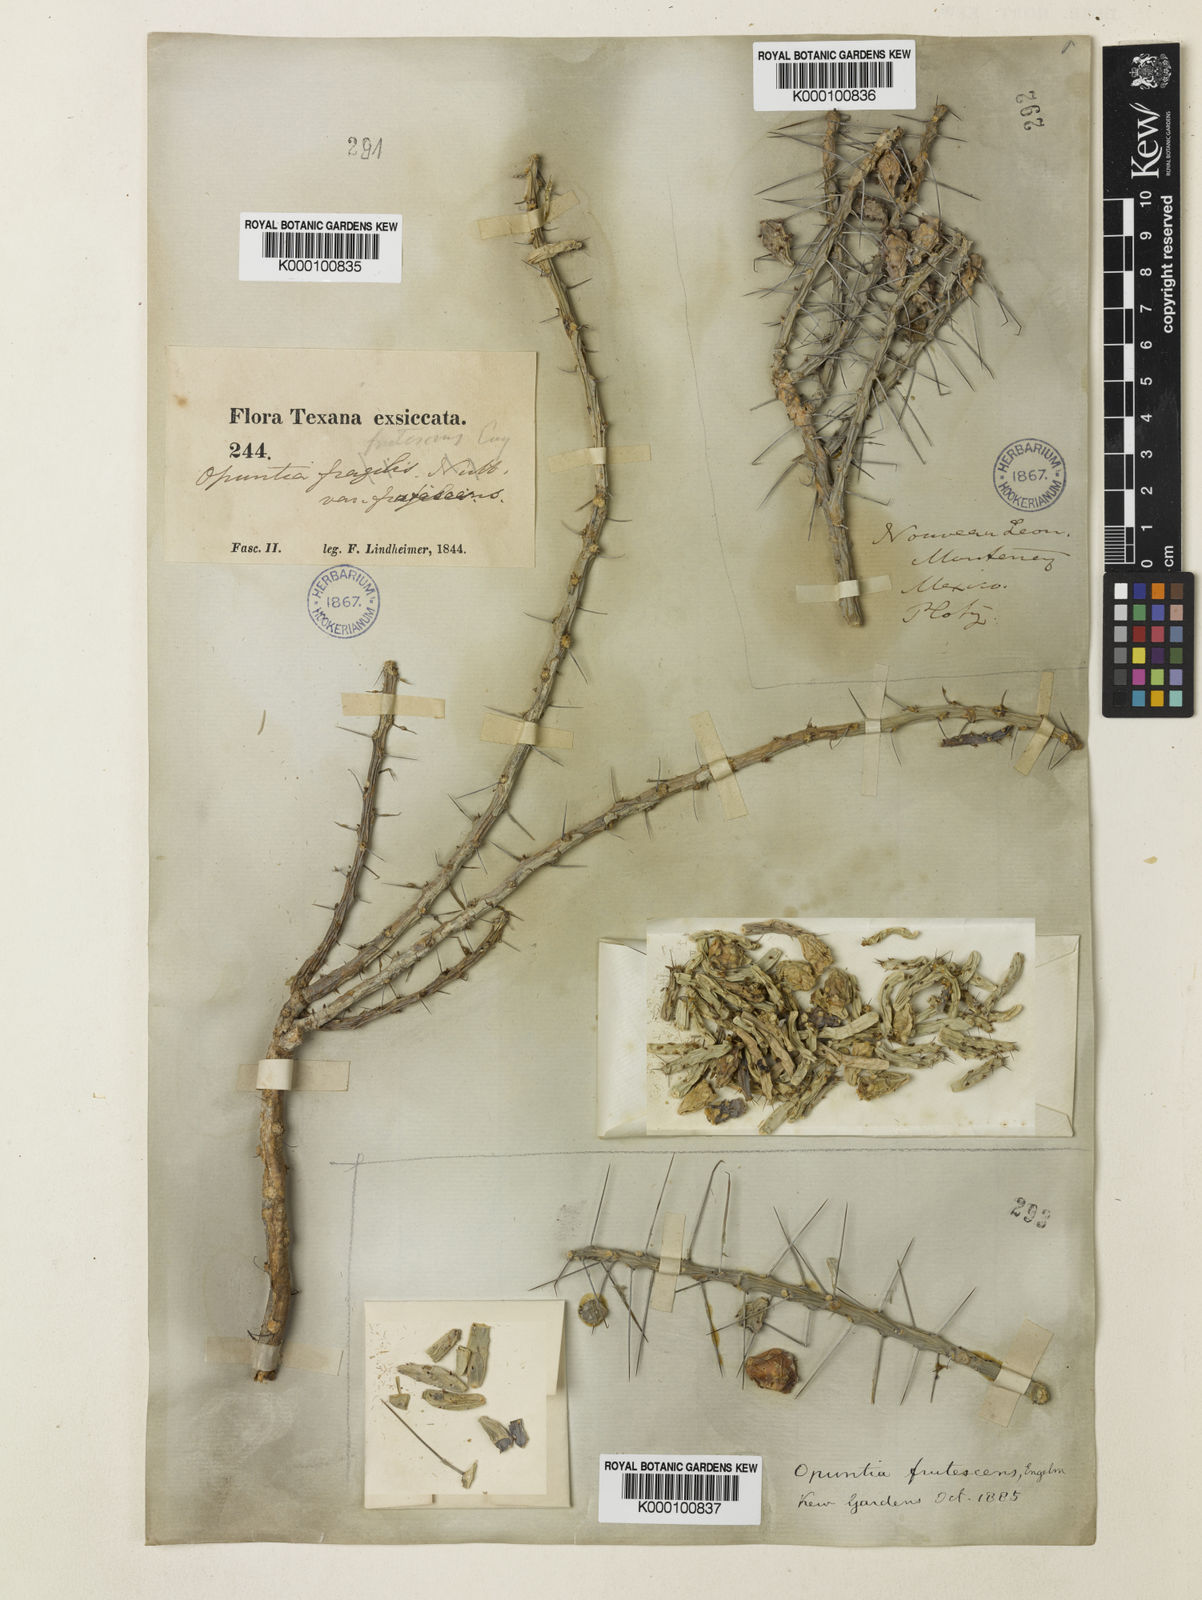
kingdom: Plantae
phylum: Tracheophyta
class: Magnoliopsida
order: Caryophyllales
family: Cactaceae
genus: Cylindropuntia
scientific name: Cylindropuntia leptocaulis
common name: Christmas cactus
